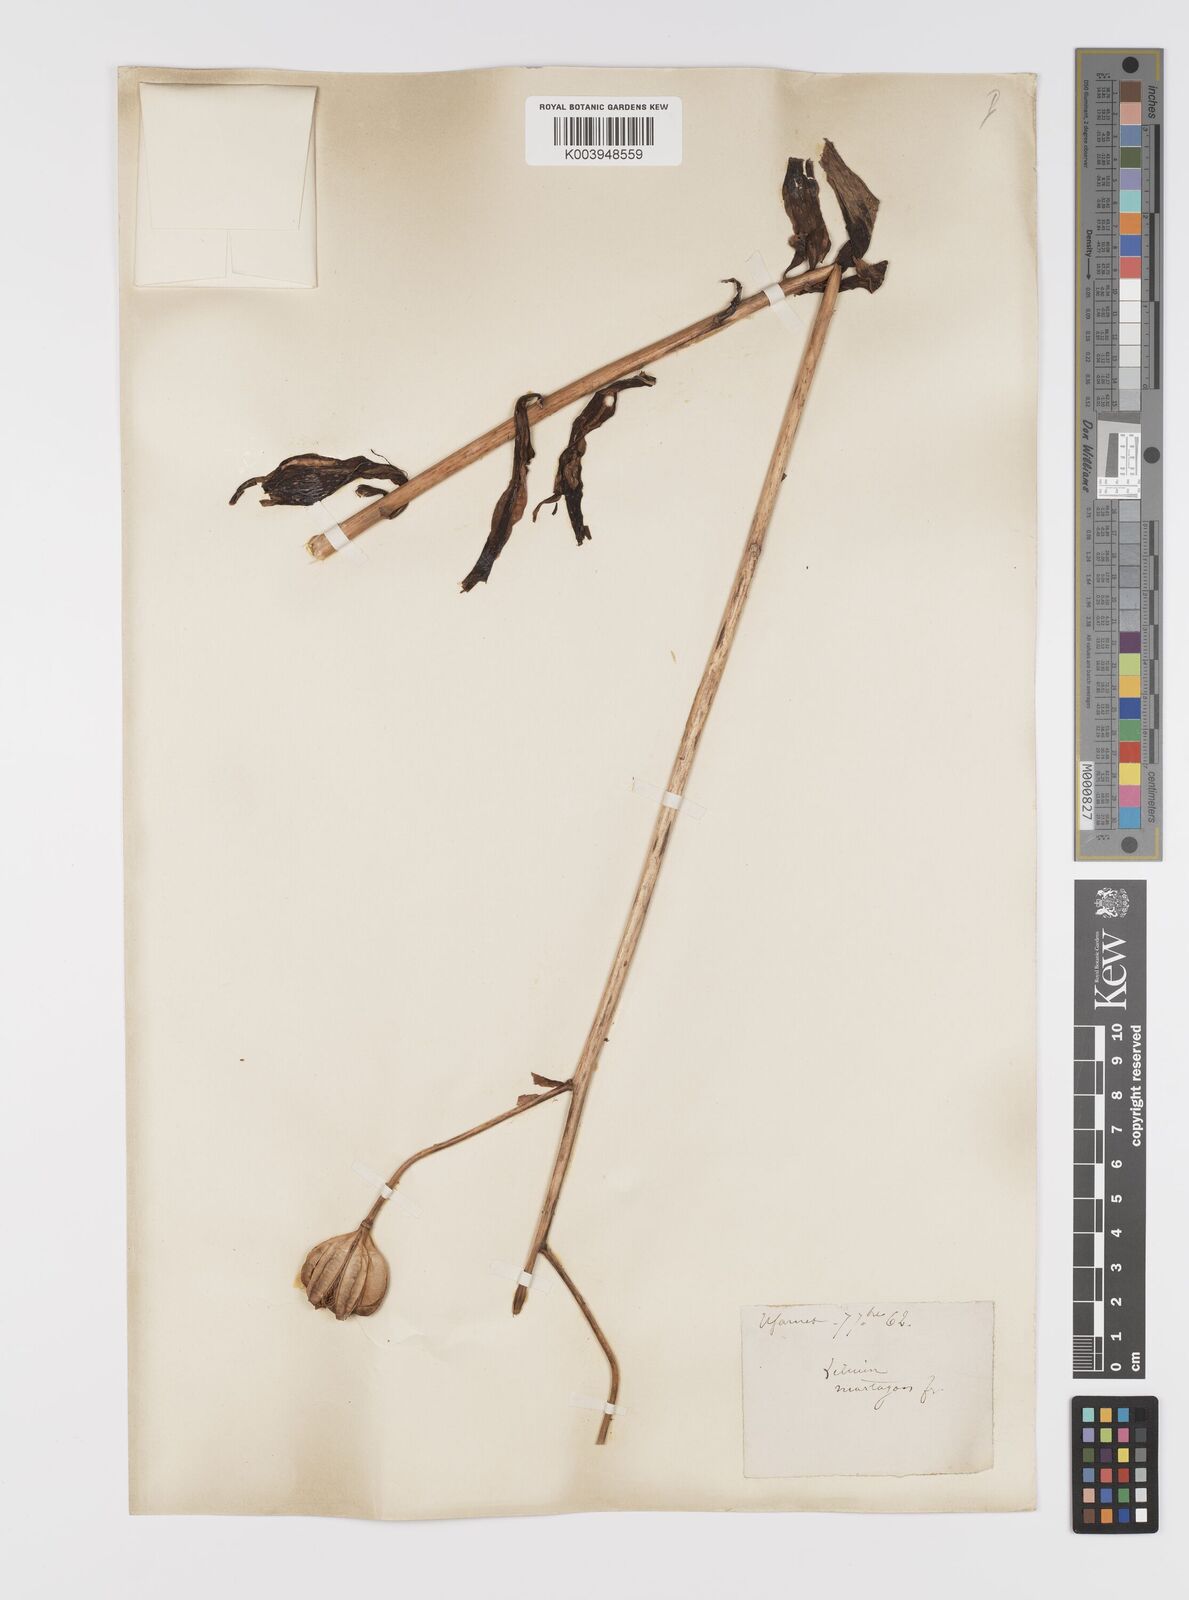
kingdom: Plantae
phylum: Tracheophyta
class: Liliopsida
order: Liliales
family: Liliaceae
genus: Lilium
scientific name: Lilium martagon
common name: Martagon lily
